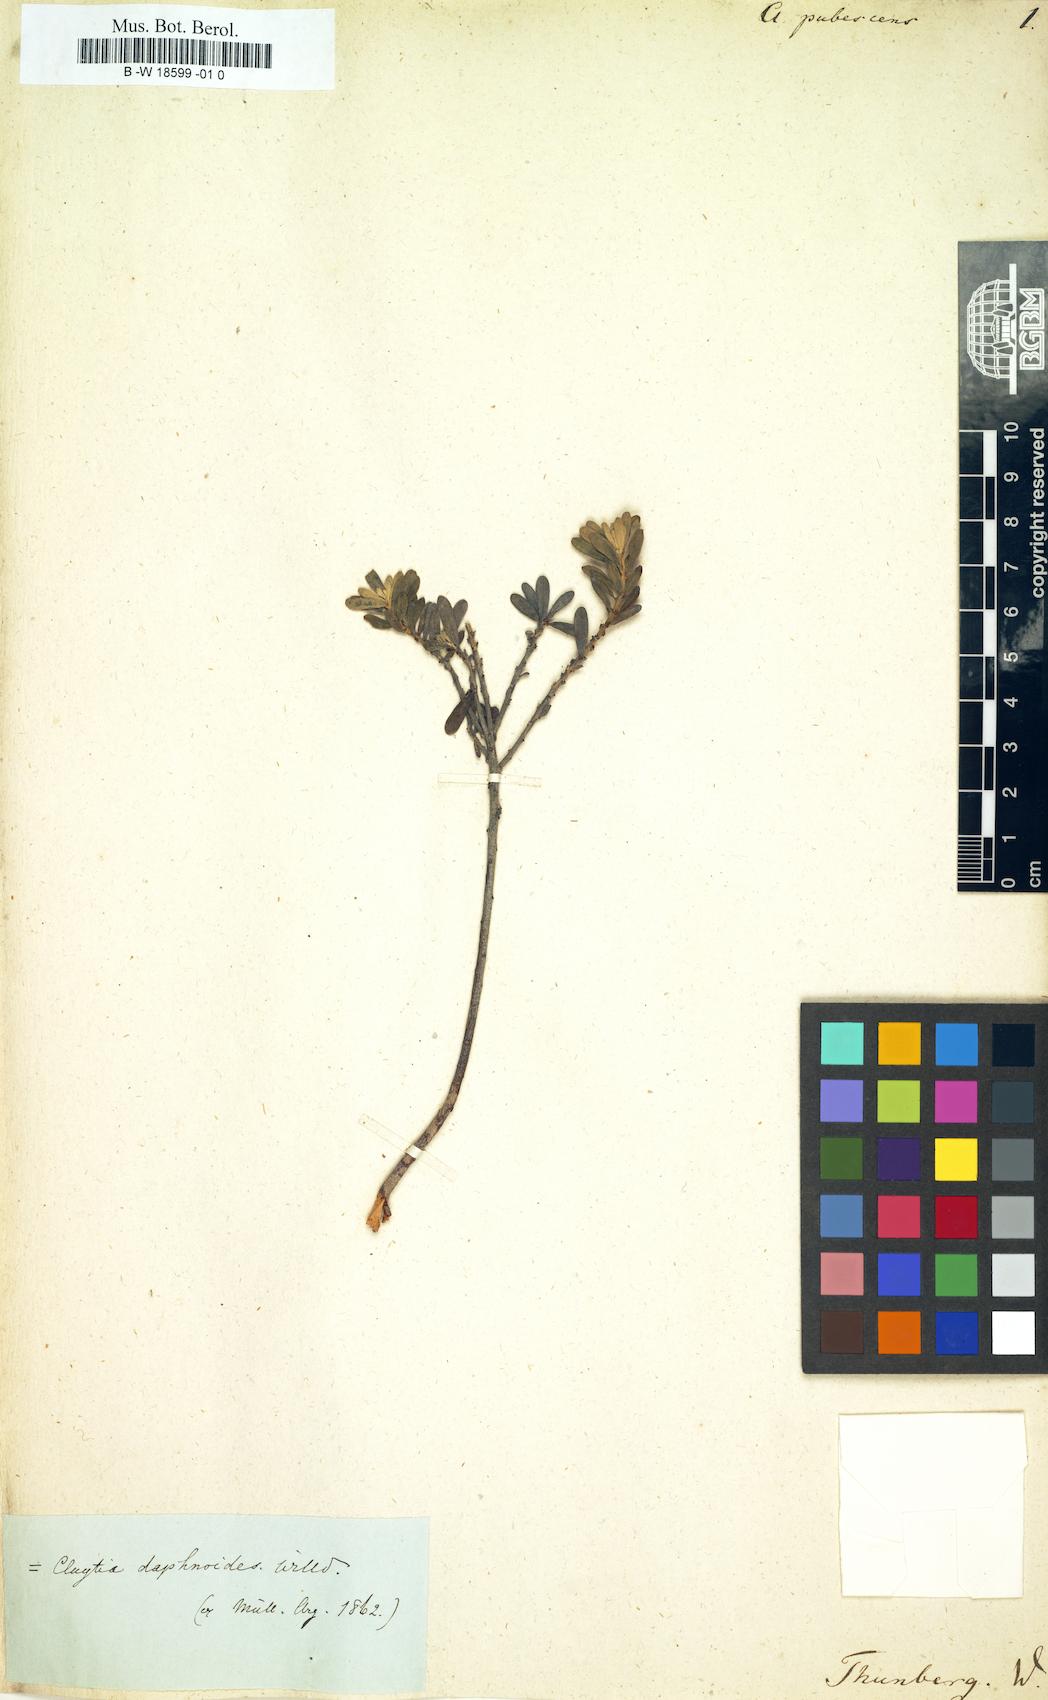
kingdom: Plantae
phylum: Tracheophyta
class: Magnoliopsida
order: Malpighiales
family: Peraceae
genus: Clutia
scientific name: Clutia
